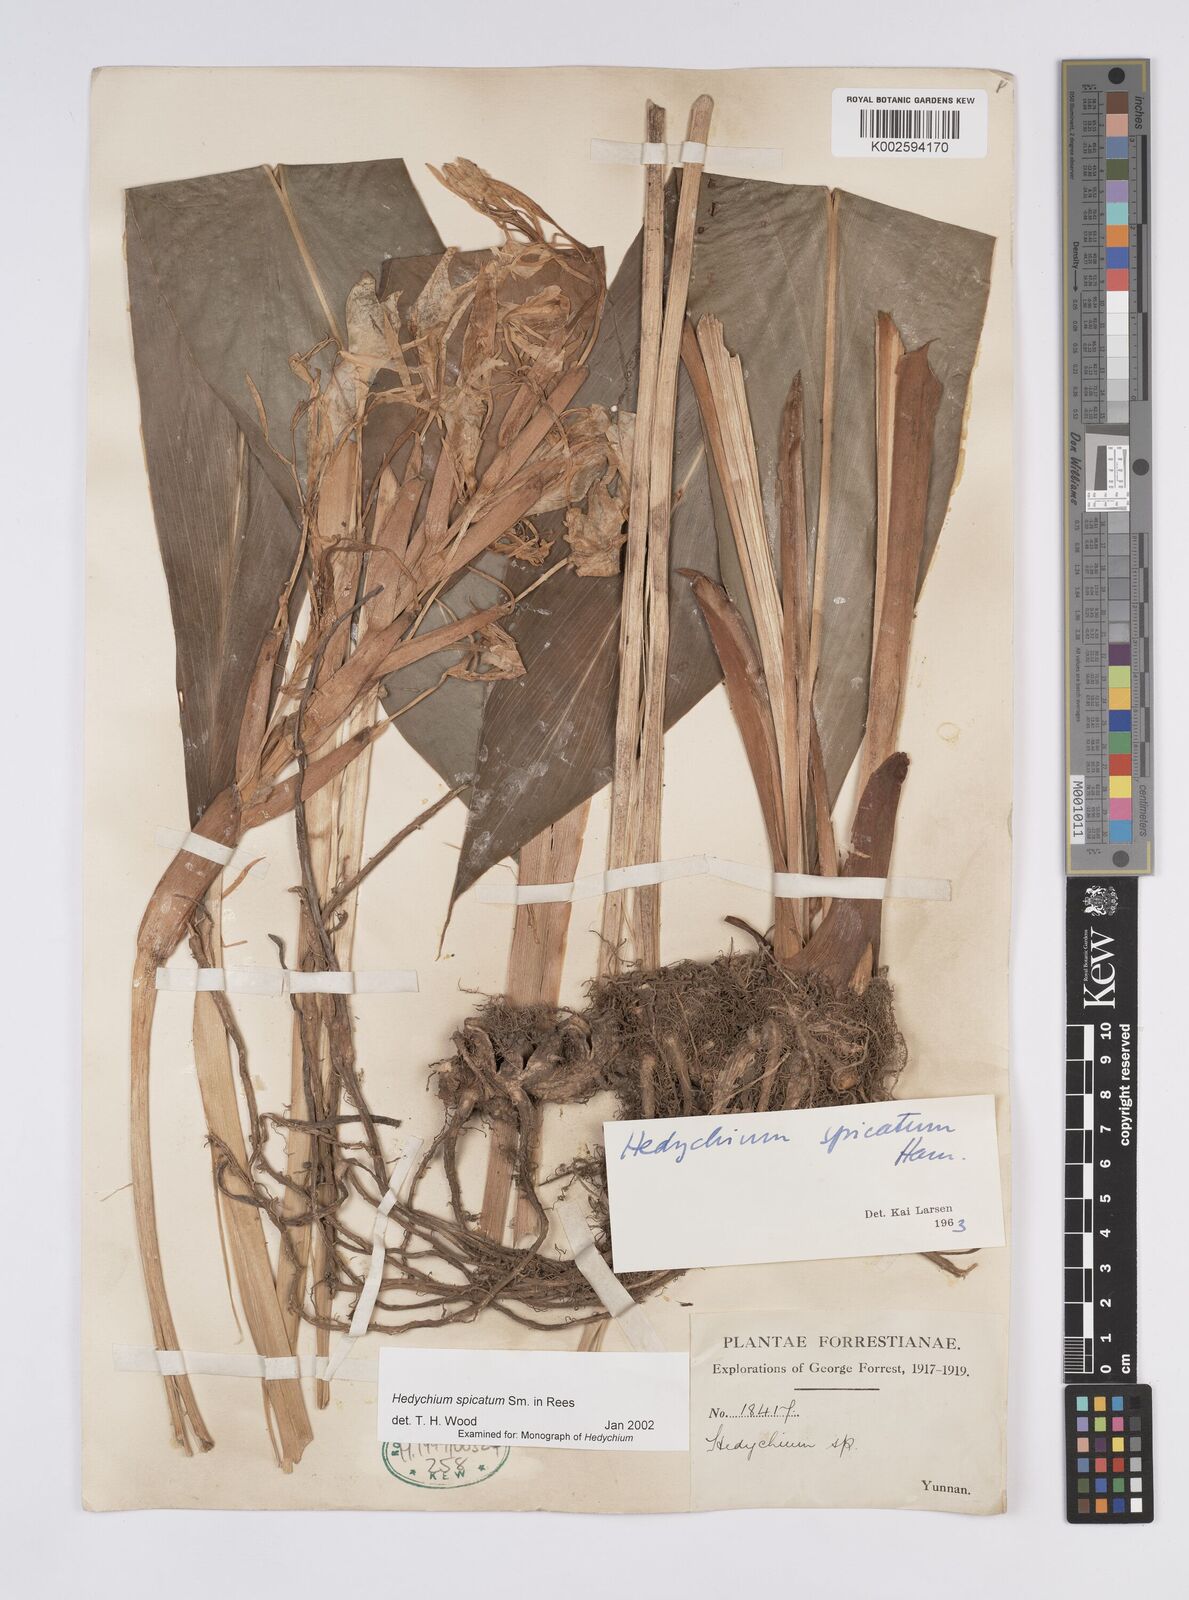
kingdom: Plantae
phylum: Tracheophyta
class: Liliopsida
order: Zingiberales
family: Zingiberaceae
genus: Hedychium
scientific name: Hedychium spicatum
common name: Spiked ginger-lily
